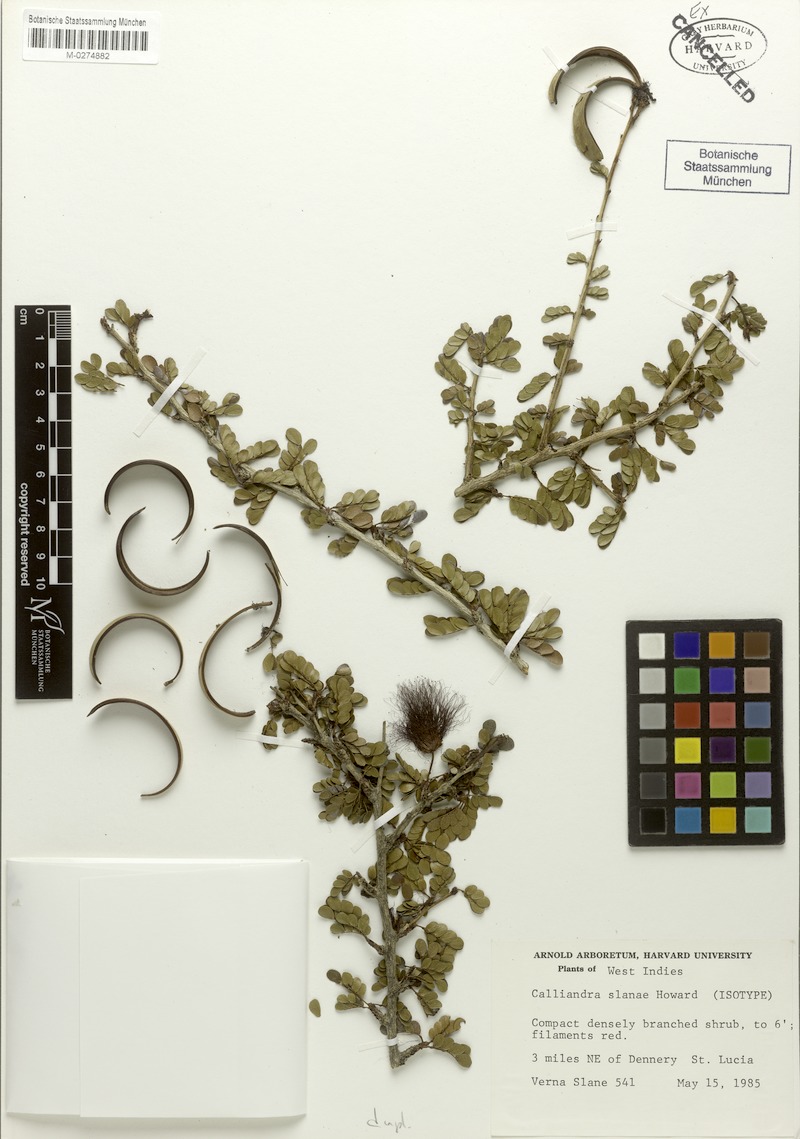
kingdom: Plantae
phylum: Tracheophyta
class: Magnoliopsida
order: Fabales
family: Fabaceae
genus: Calliandra
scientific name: Calliandra purpurea
